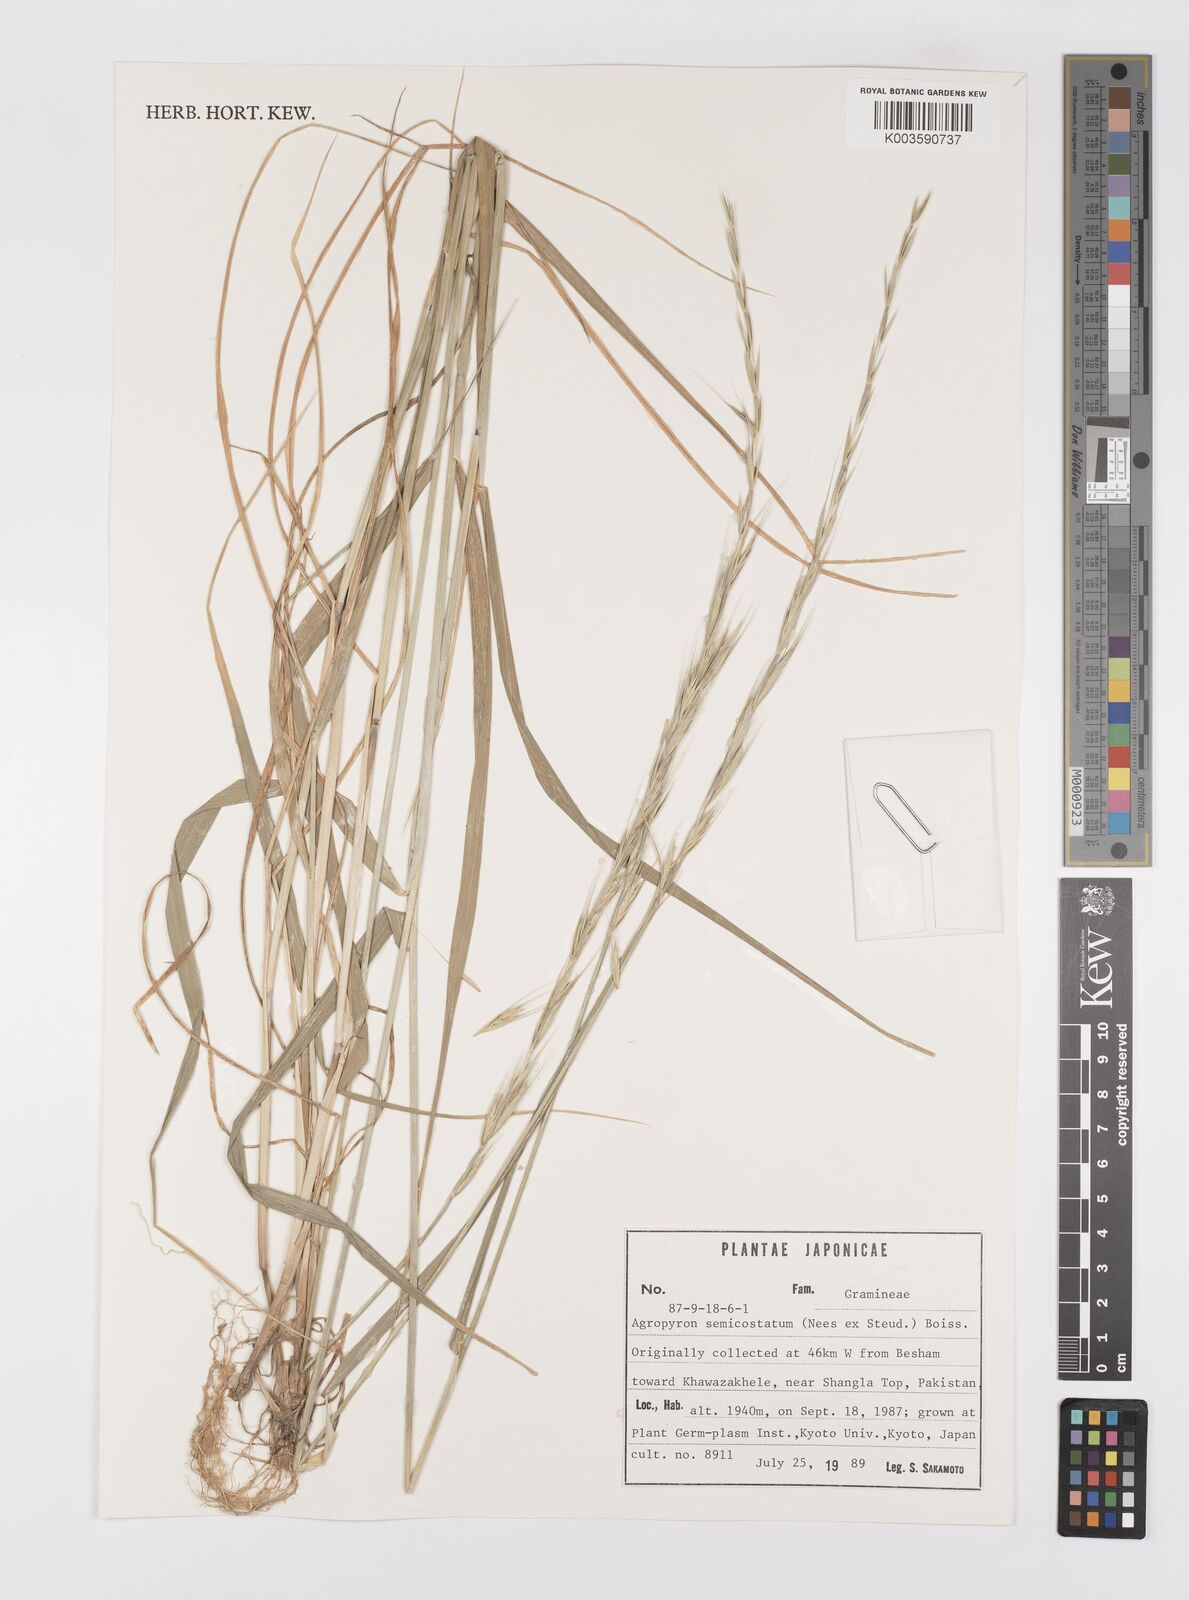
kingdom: Plantae
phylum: Tracheophyta
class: Liliopsida
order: Poales
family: Poaceae
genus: Elymus
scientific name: Elymus semicostatus
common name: Drooping wildrye
